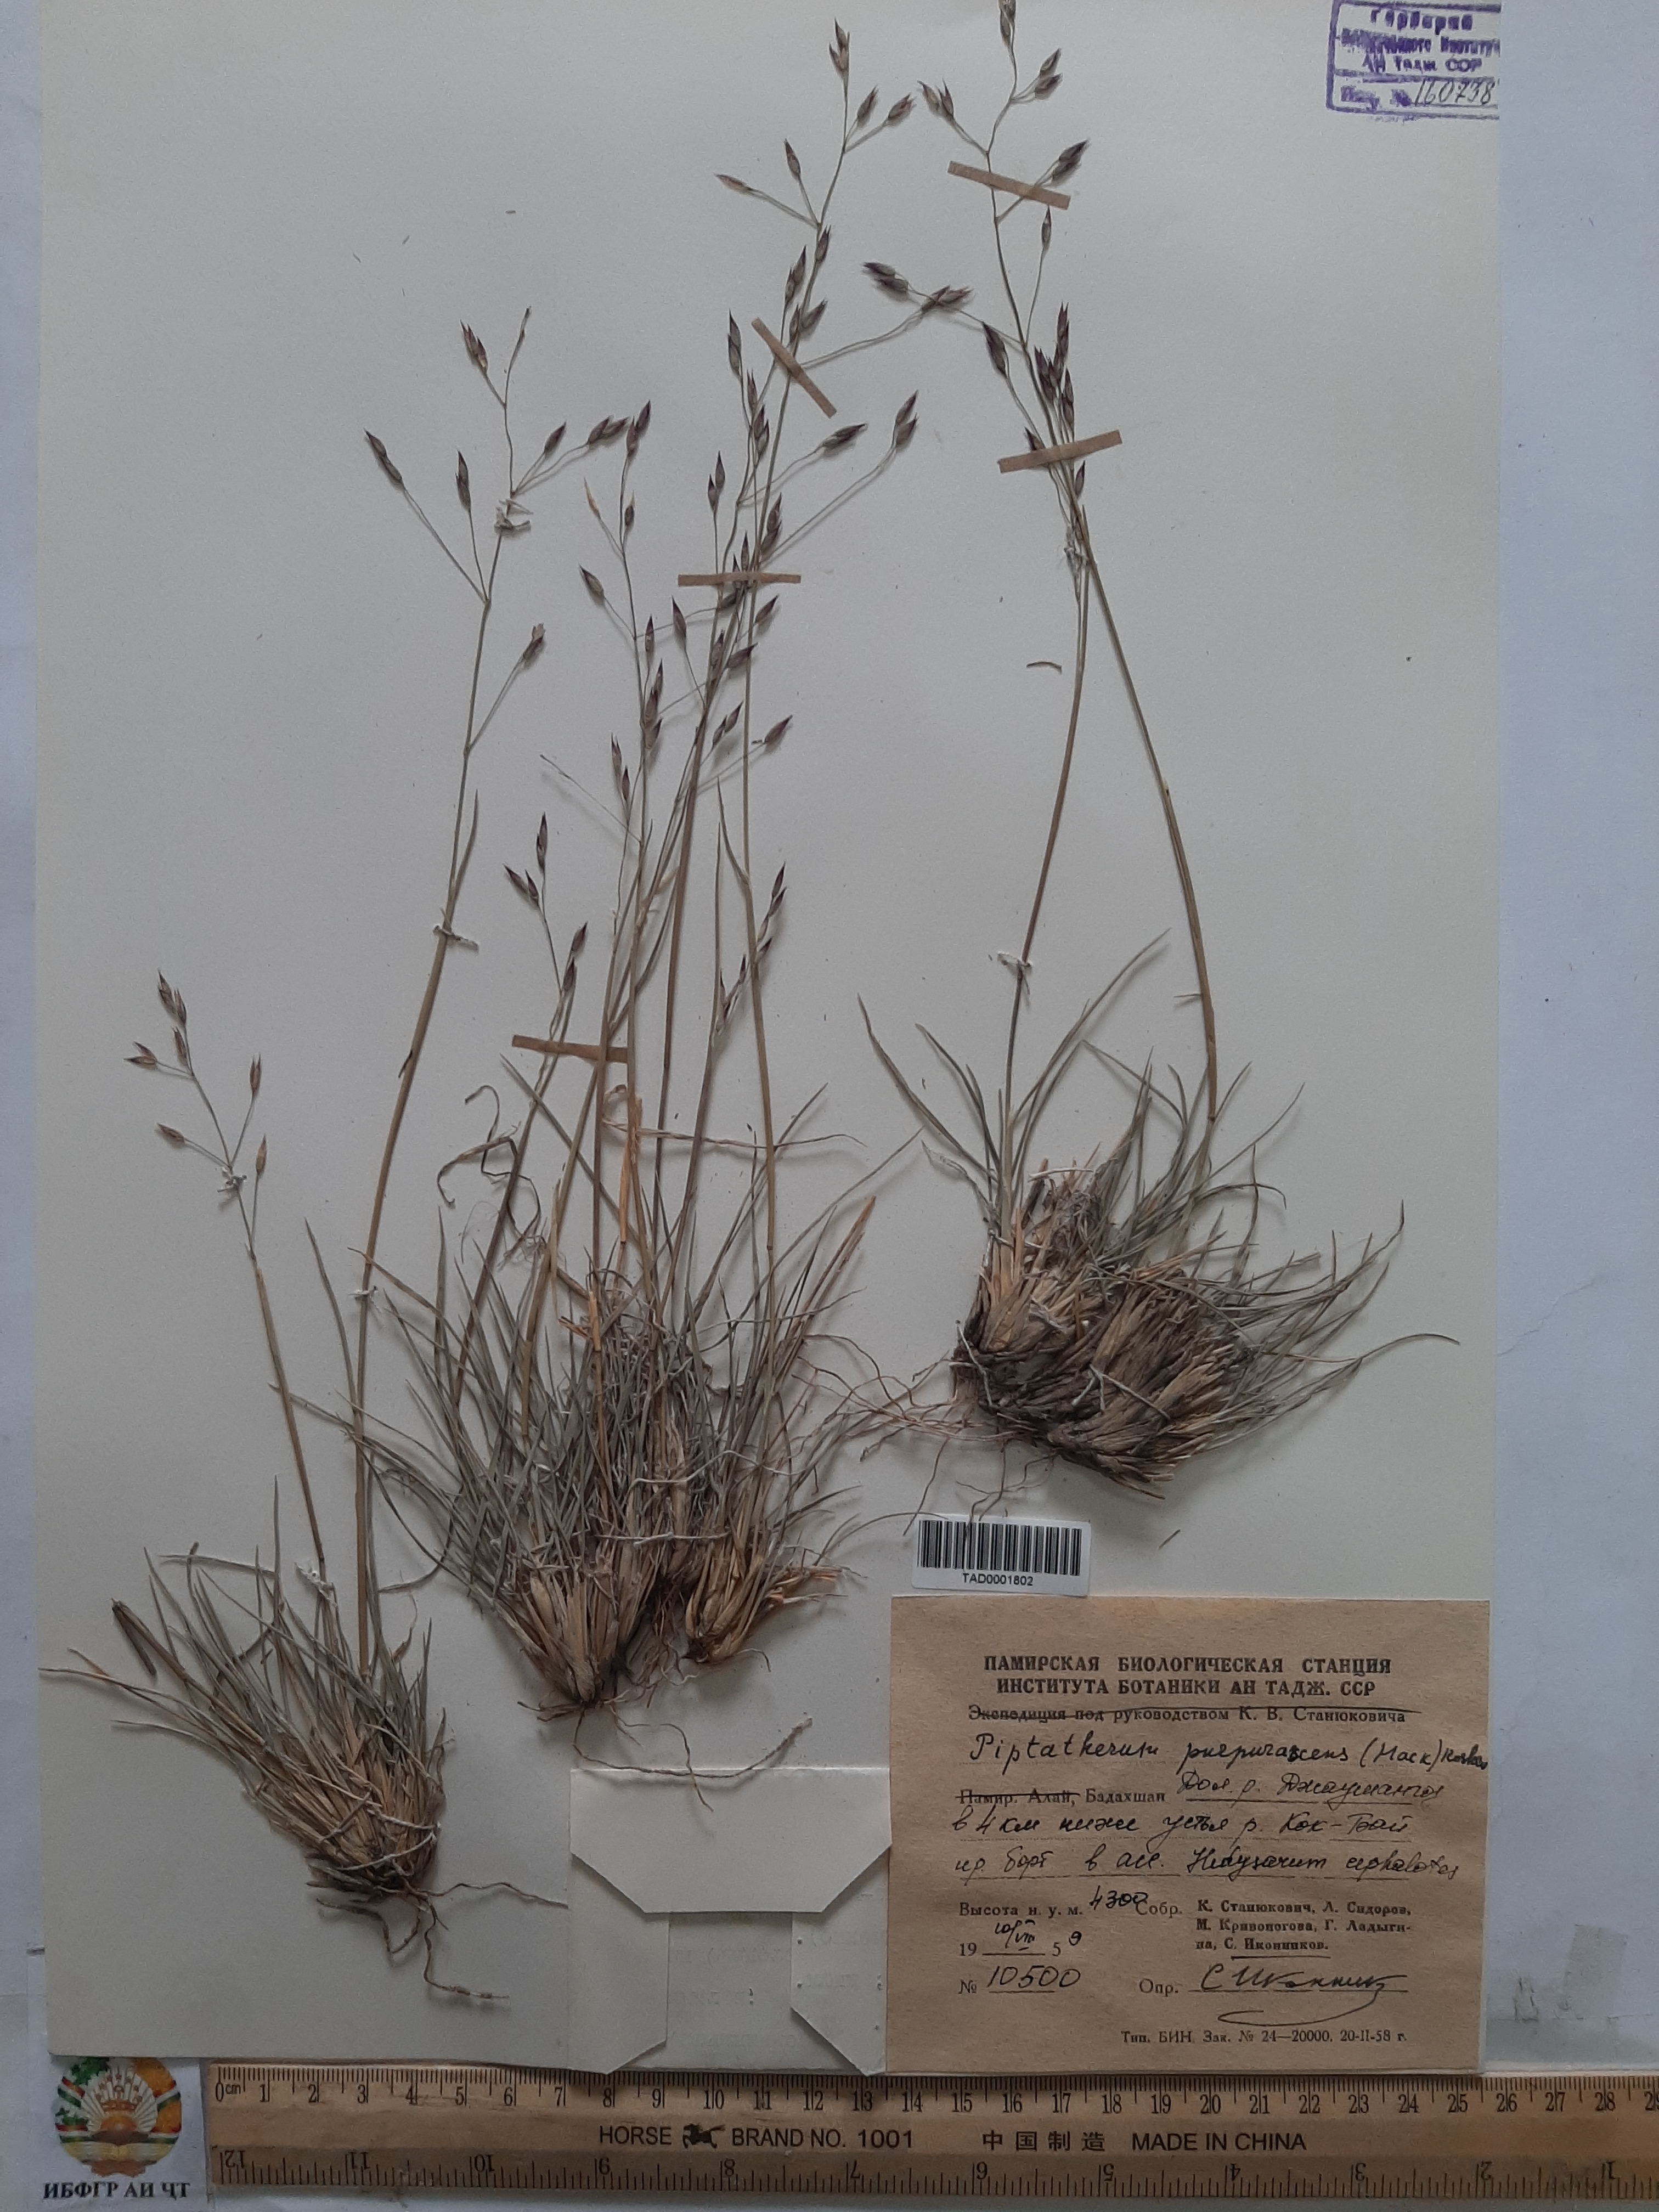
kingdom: Plantae
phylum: Tracheophyta
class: Liliopsida
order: Poales
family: Poaceae
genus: Piptatherum
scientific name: Piptatherum purpurascens
